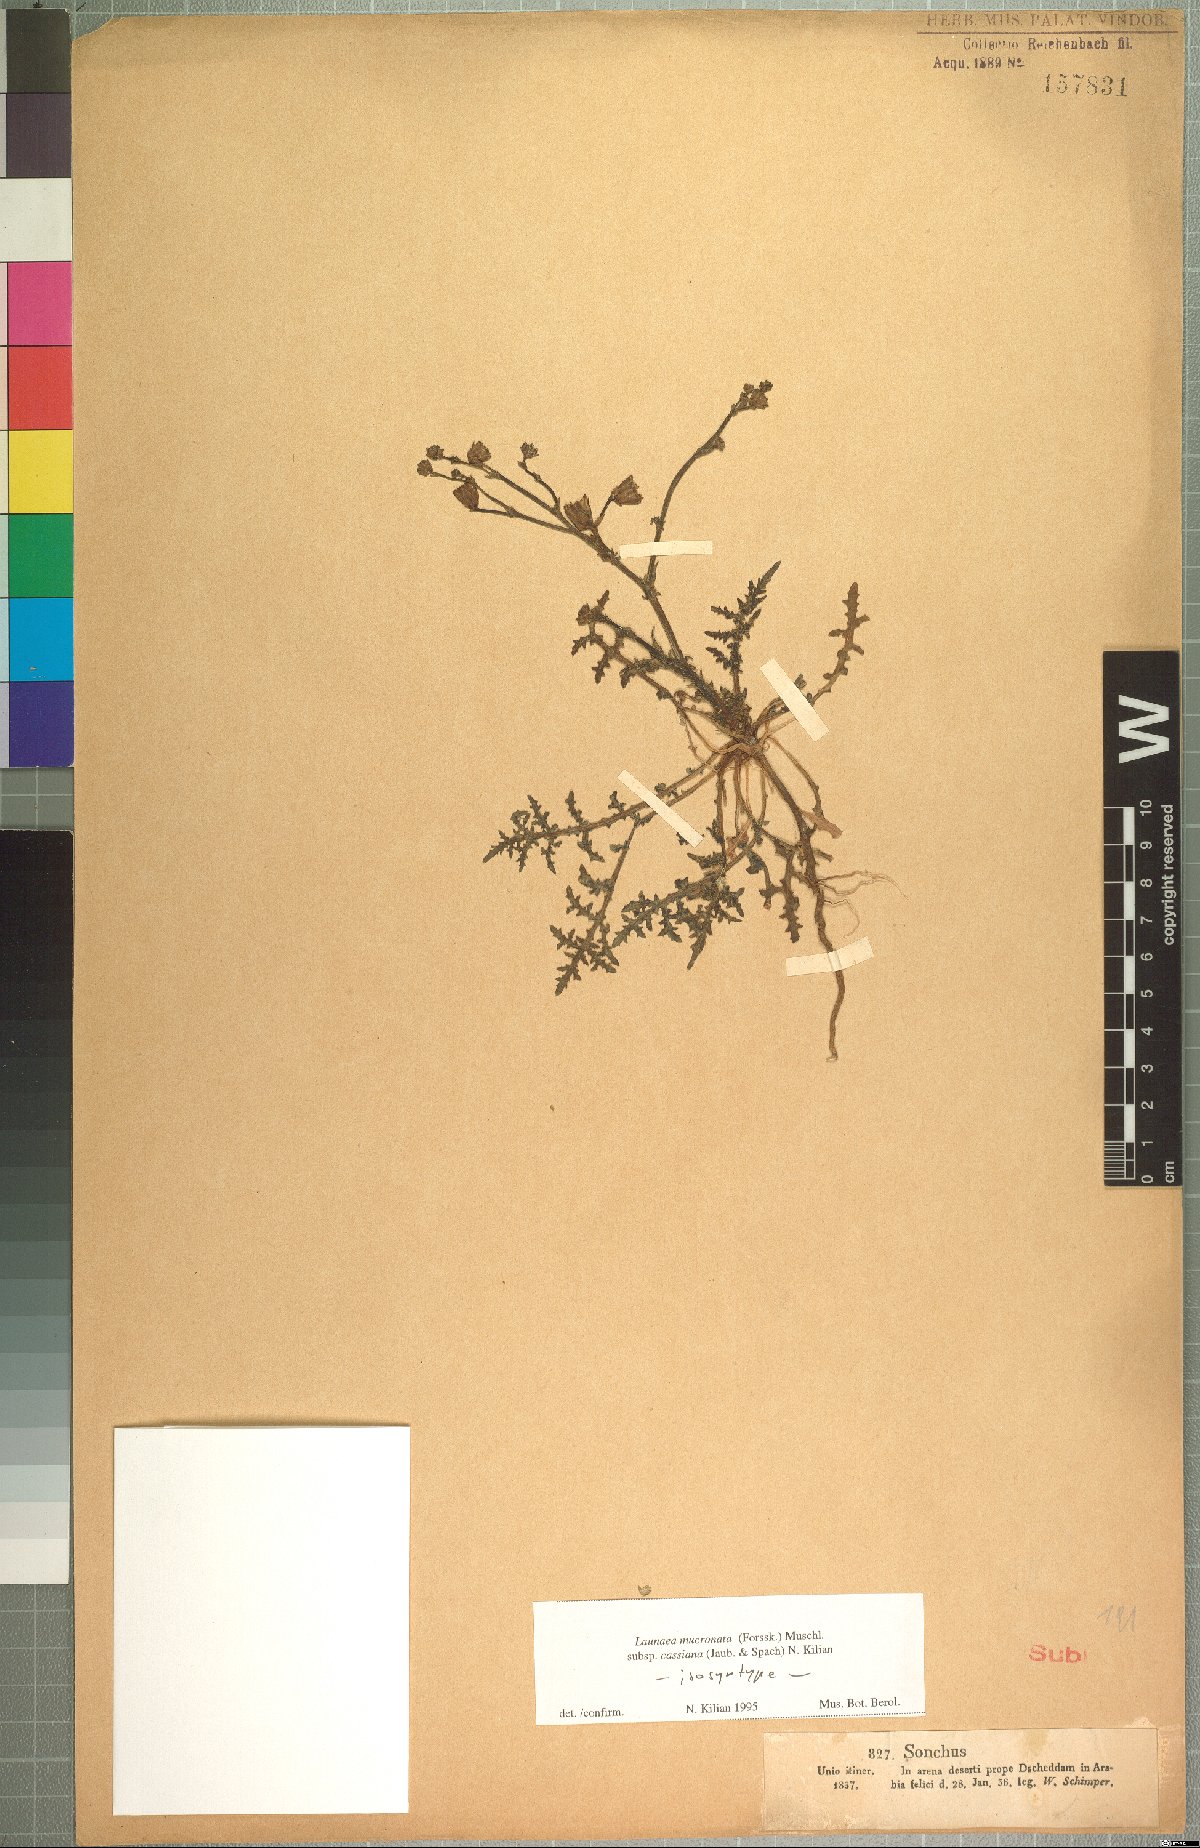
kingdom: Plantae
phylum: Tracheophyta
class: Magnoliopsida
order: Asterales
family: Asteraceae
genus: Launaea
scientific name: Launaea mucronata
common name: Mucronate launea
